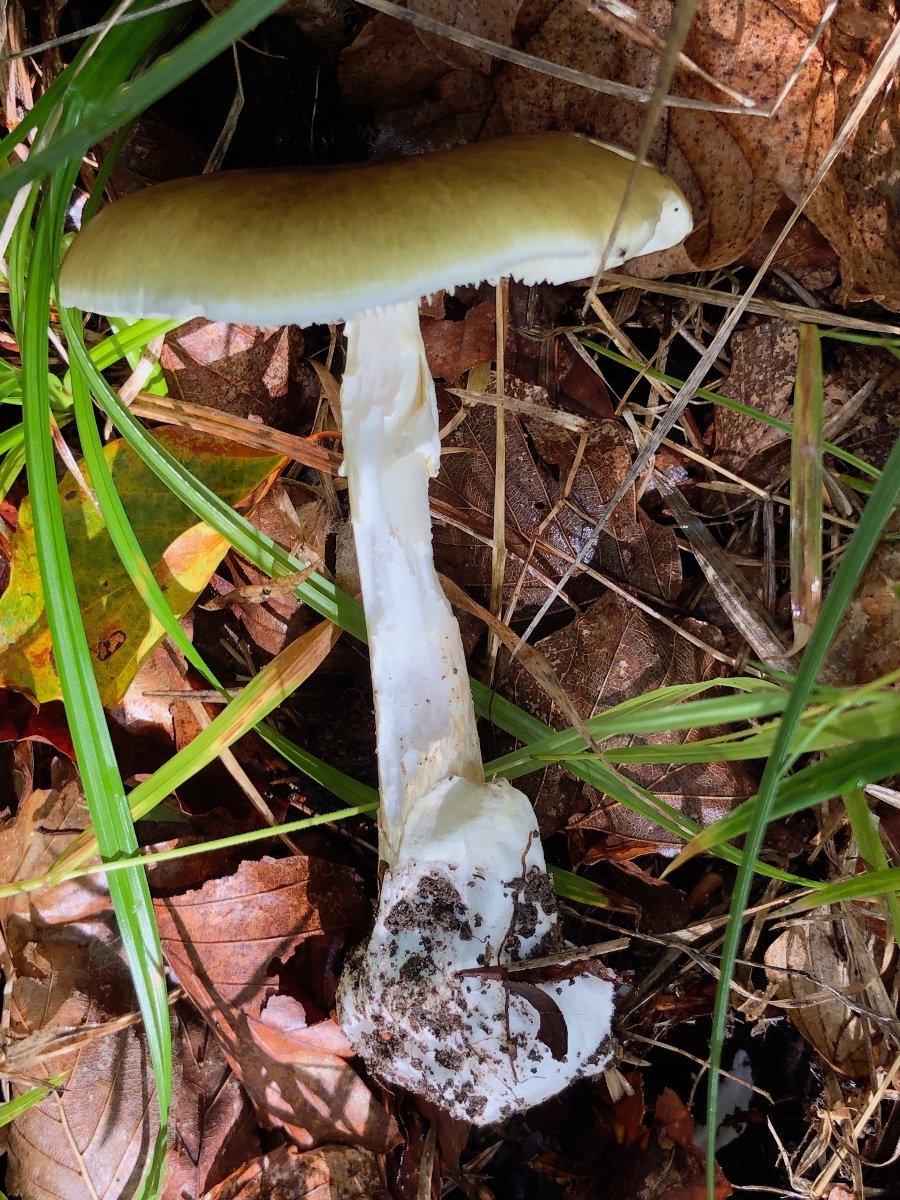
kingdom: Fungi
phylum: Basidiomycota
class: Agaricomycetes
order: Agaricales
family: Amanitaceae
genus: Amanita
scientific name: Amanita phalloides
